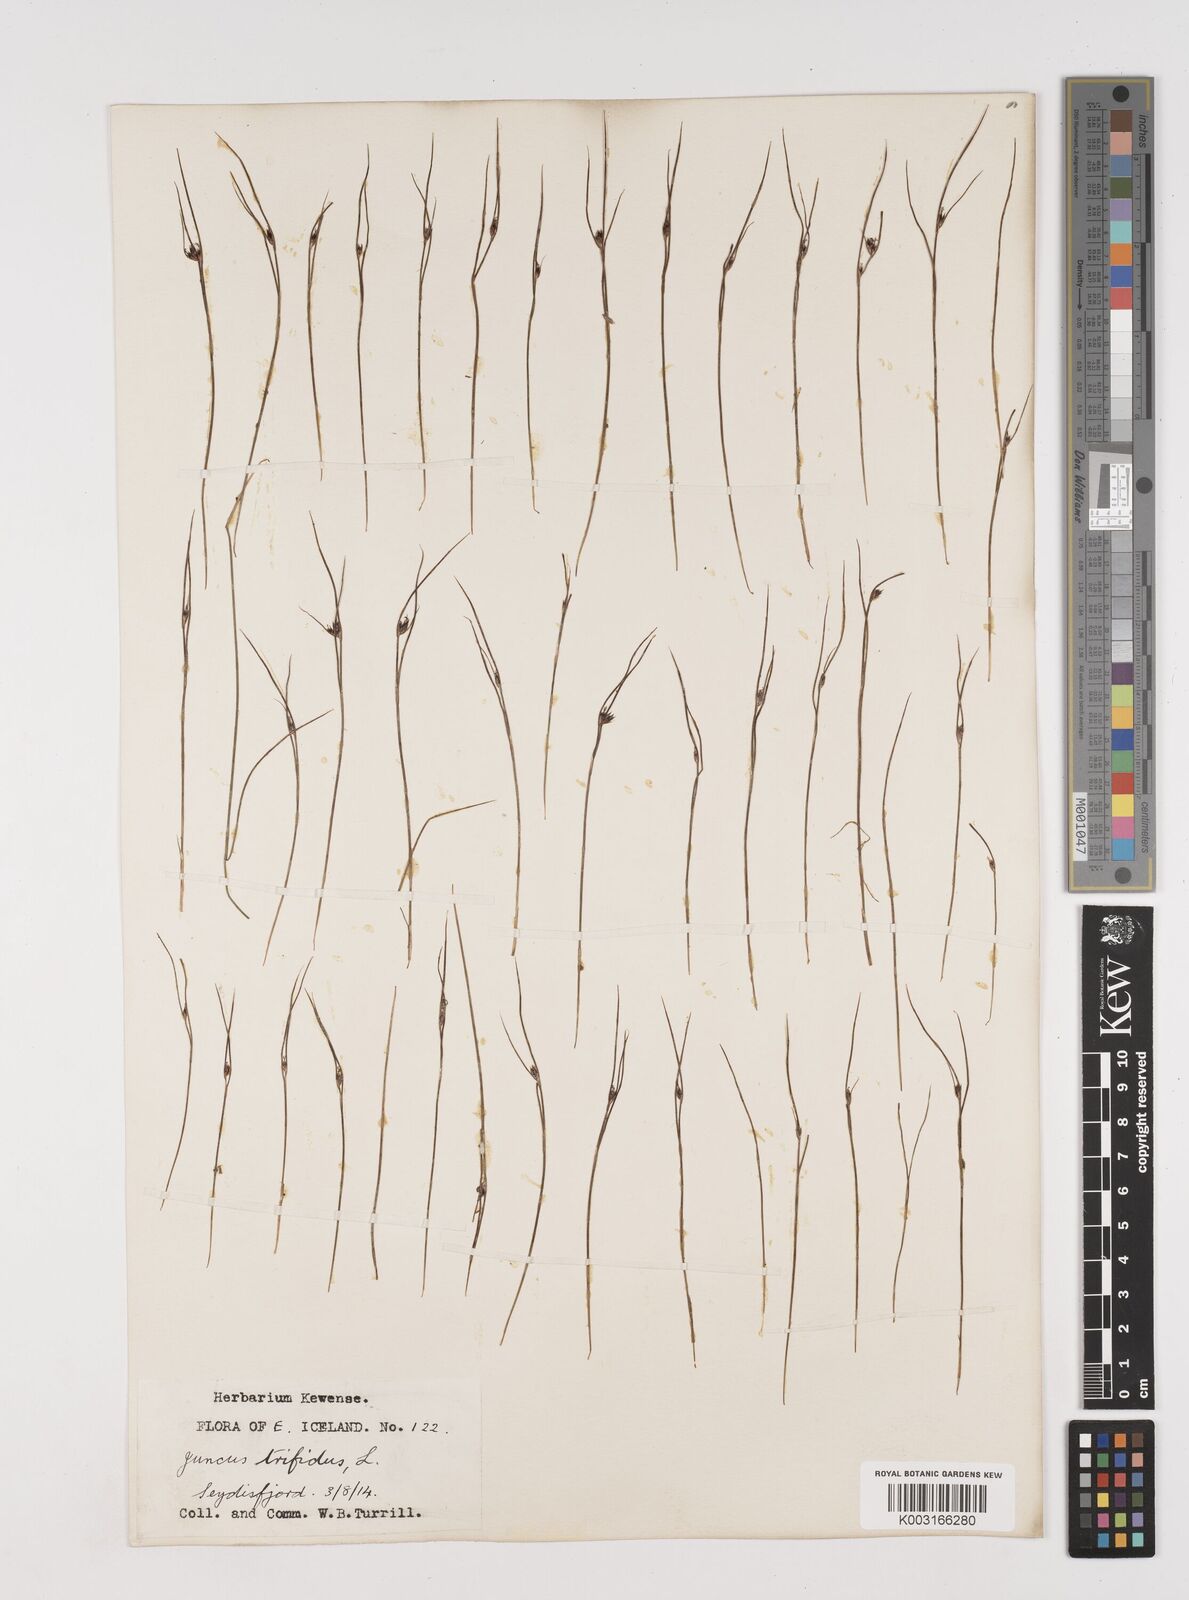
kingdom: Plantae
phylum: Tracheophyta
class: Liliopsida
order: Poales
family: Juncaceae
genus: Oreojuncus
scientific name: Oreojuncus trifidus
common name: Highland rush
